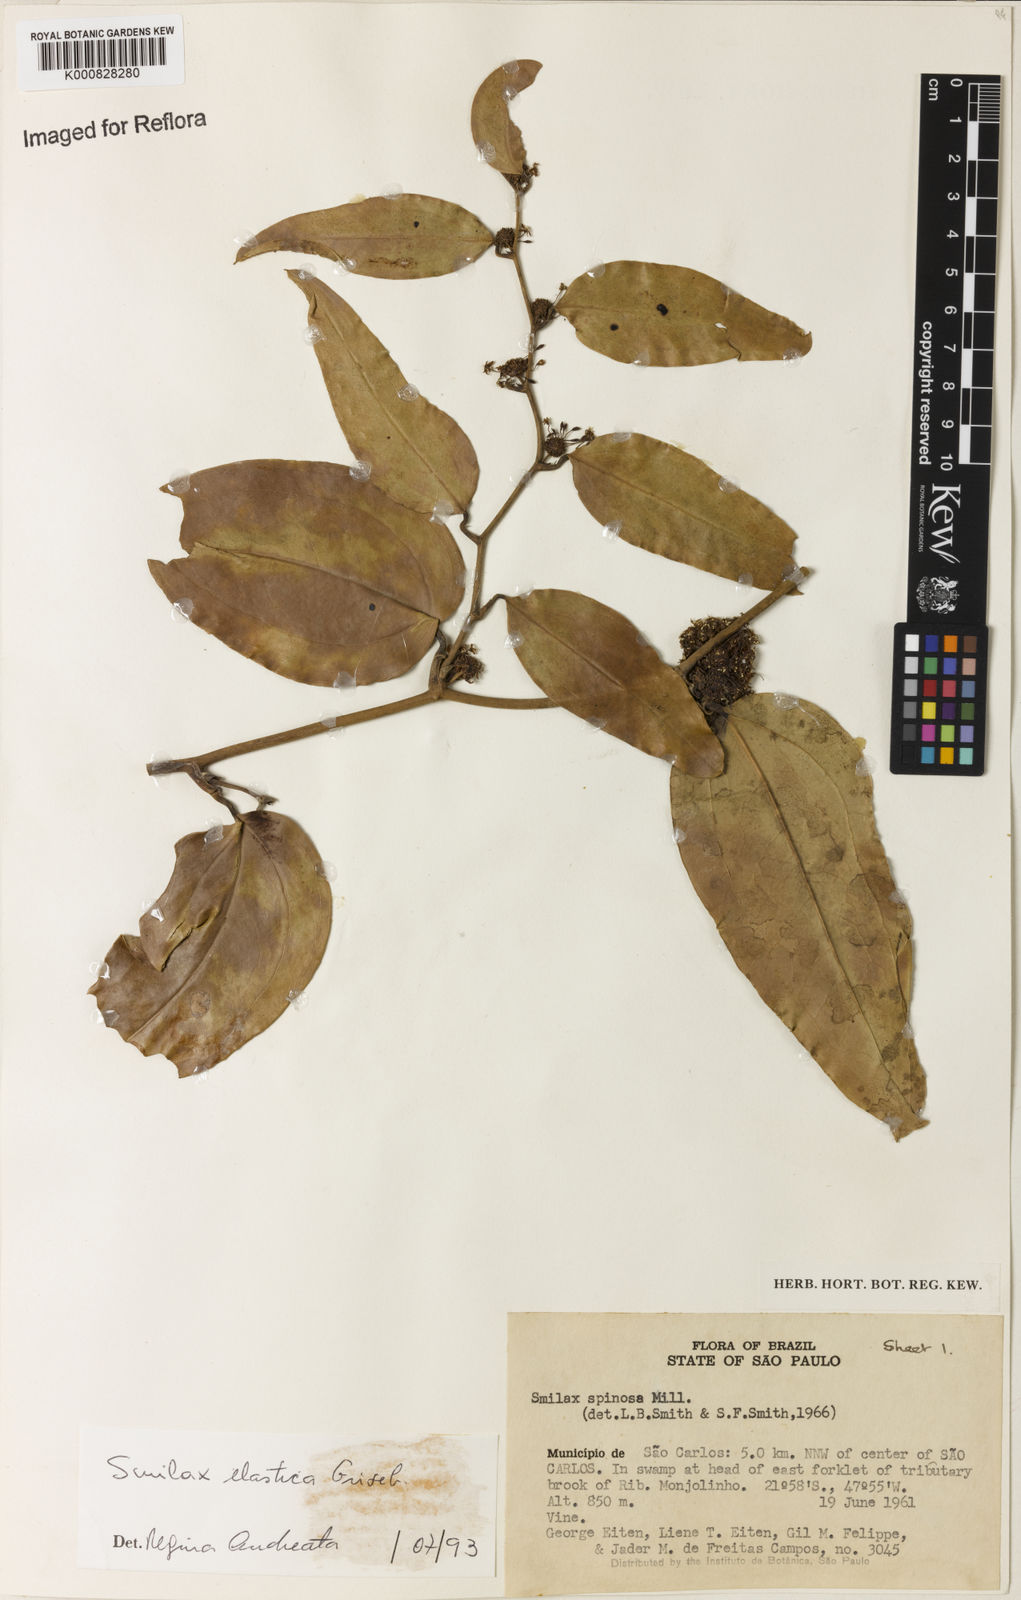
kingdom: Plantae
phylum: Tracheophyta
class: Liliopsida
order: Liliales
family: Smilacaceae
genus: Smilax
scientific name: Smilax elastica
